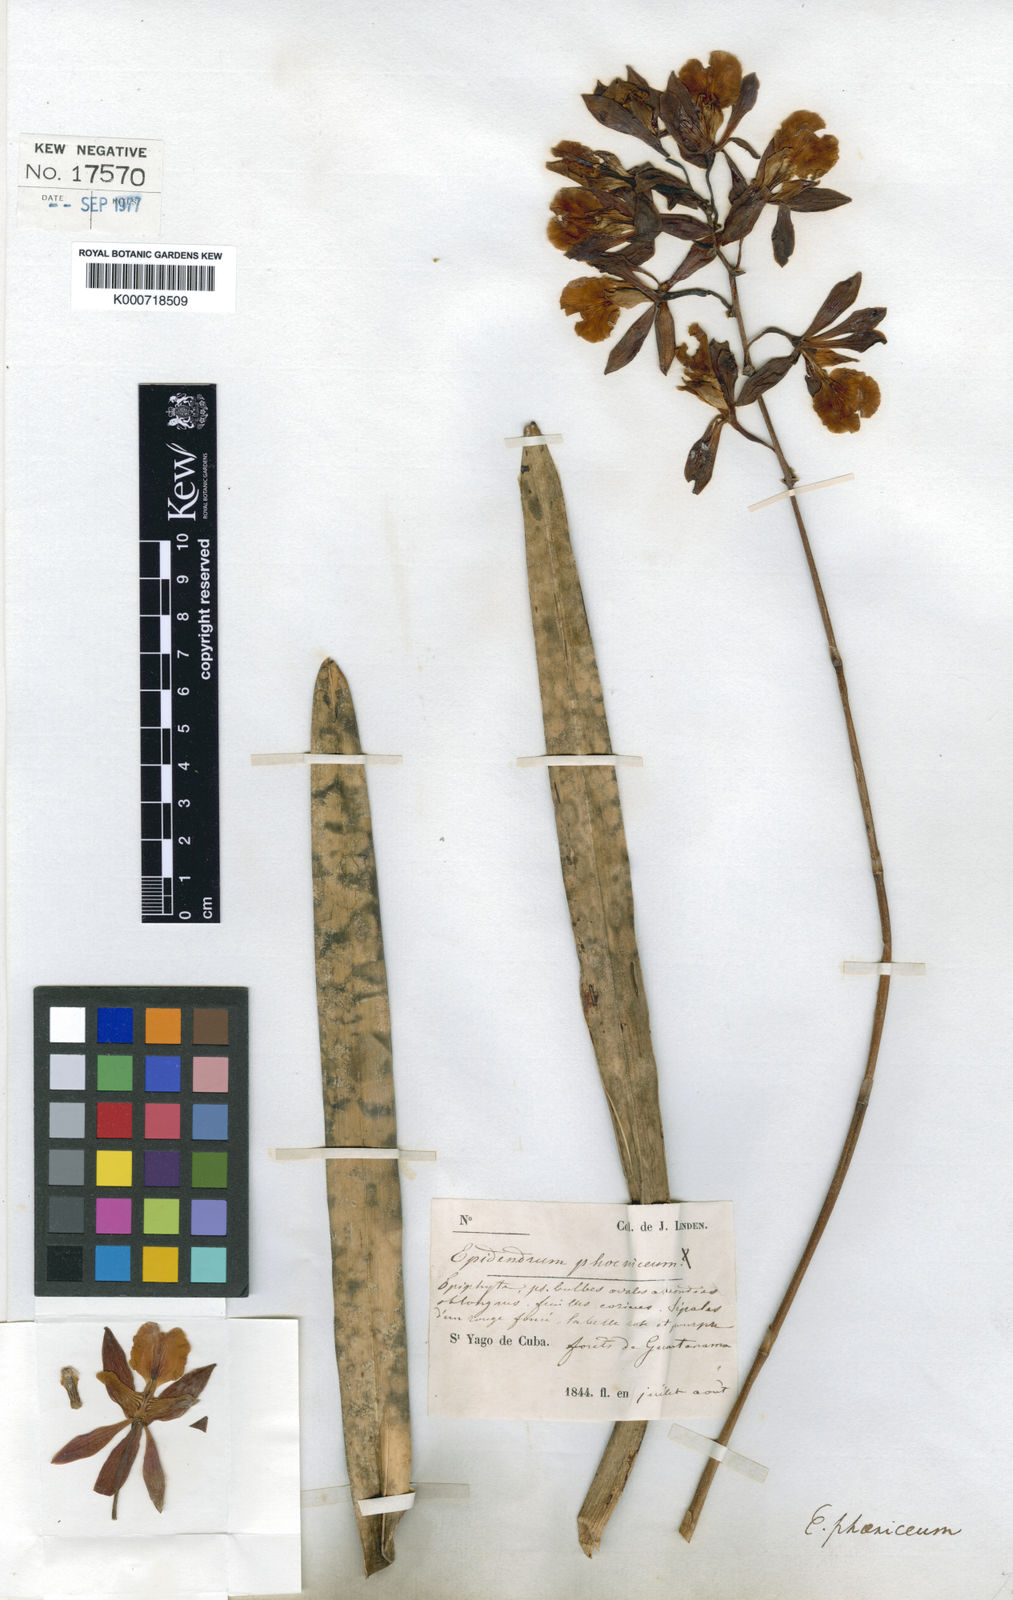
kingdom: Plantae
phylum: Tracheophyta
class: Liliopsida
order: Asparagales
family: Orchidaceae
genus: Encyclia
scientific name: Encyclia phoenicea
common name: Chocolate orchid
